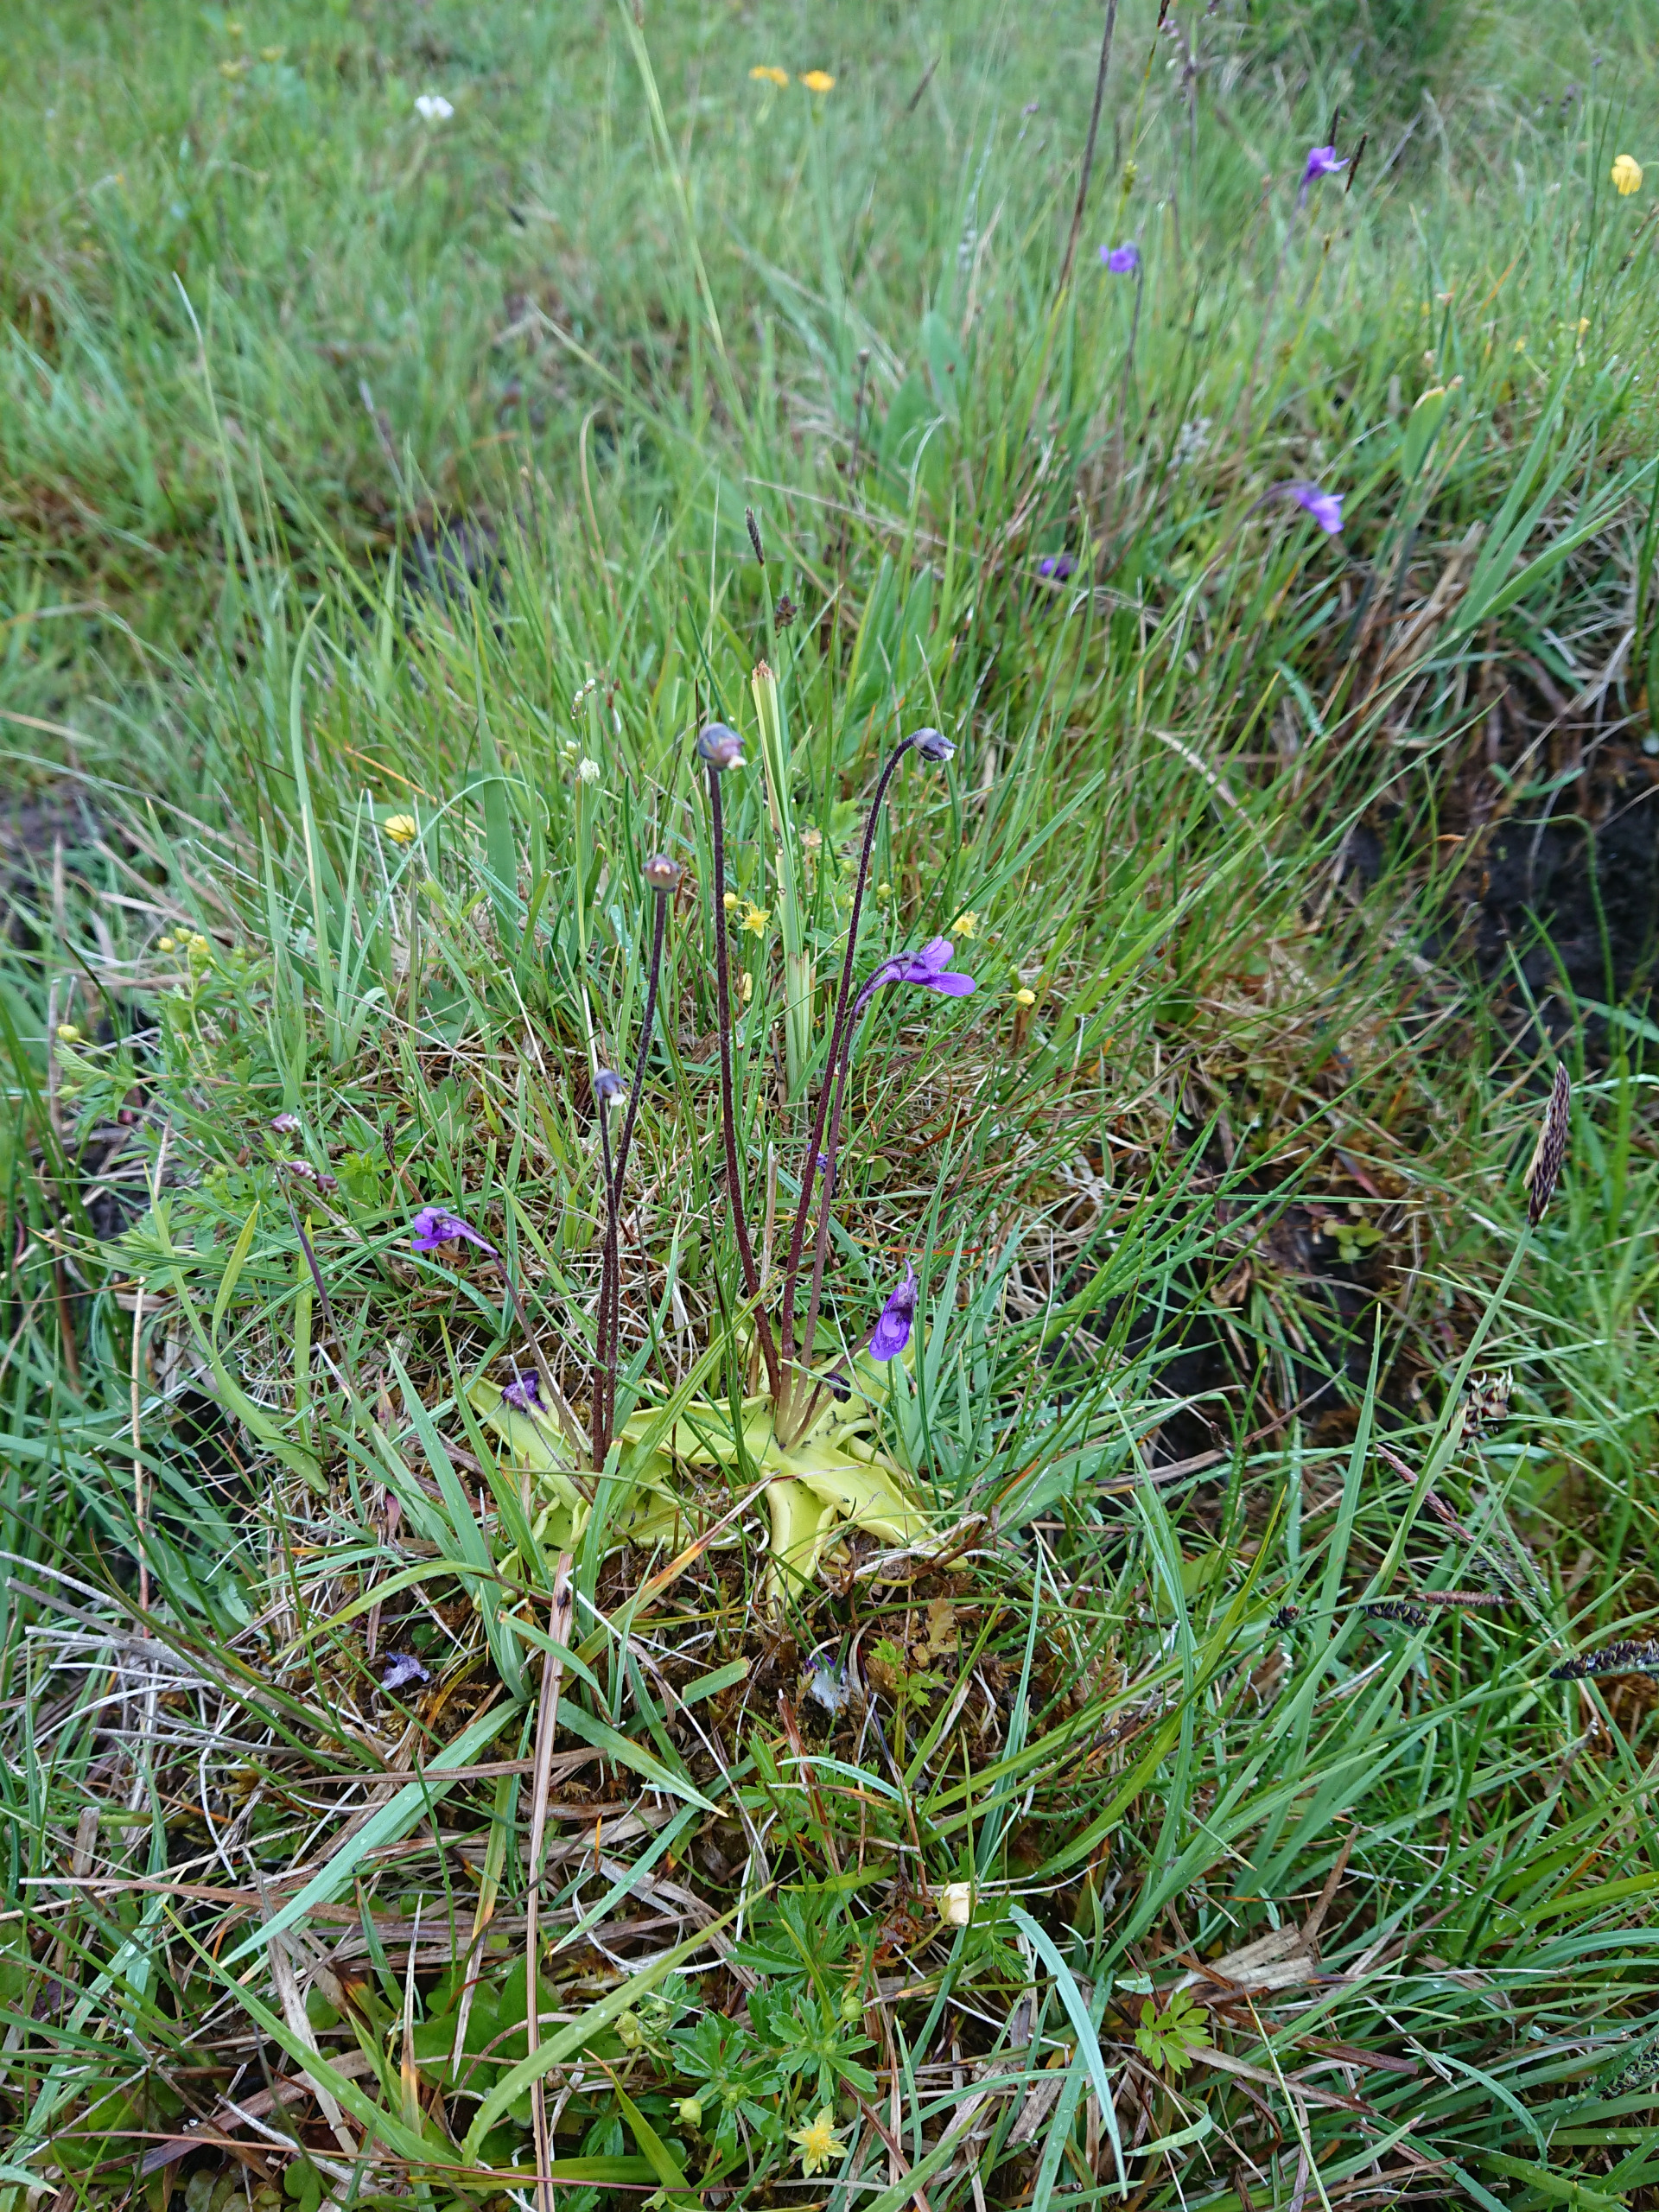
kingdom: Plantae
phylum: Tracheophyta
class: Magnoliopsida
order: Lamiales
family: Lentibulariaceae
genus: Pinguicula
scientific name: Pinguicula vulgaris
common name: Vibefedt
